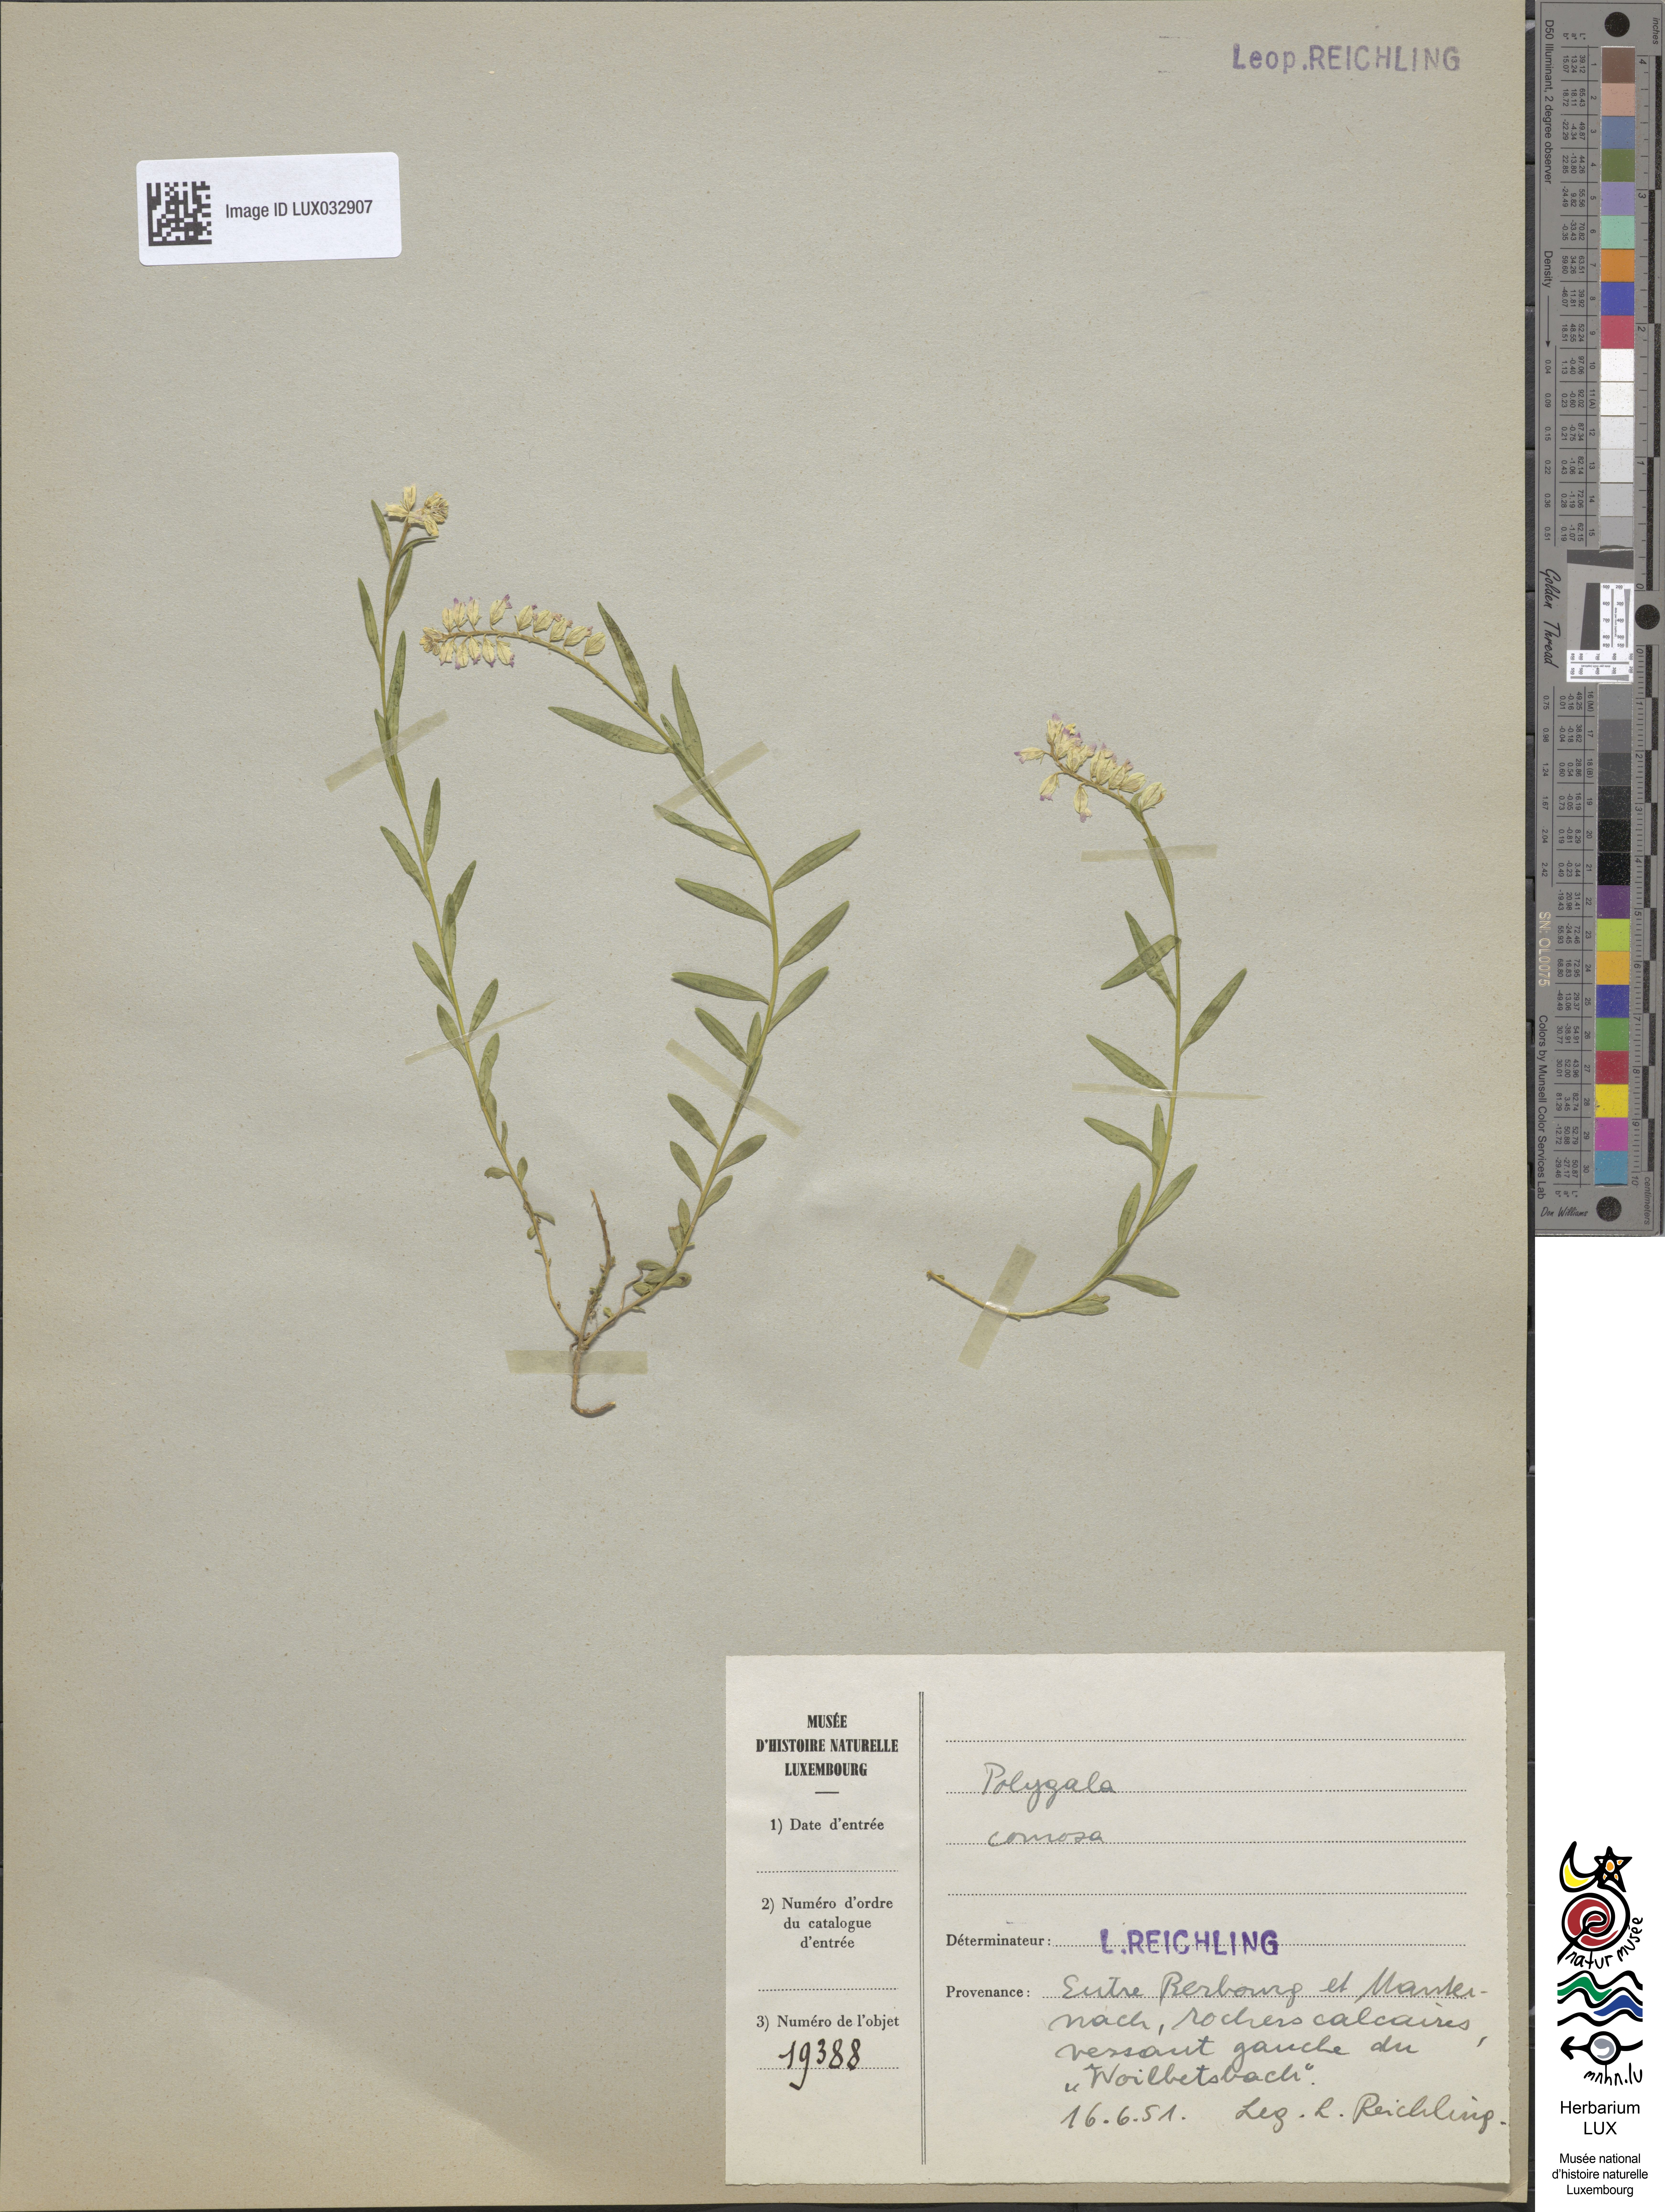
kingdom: Plantae
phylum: Tracheophyta
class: Magnoliopsida
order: Fabales
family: Polygalaceae
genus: Polygala
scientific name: Polygala comosa
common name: Tufted milkwort
